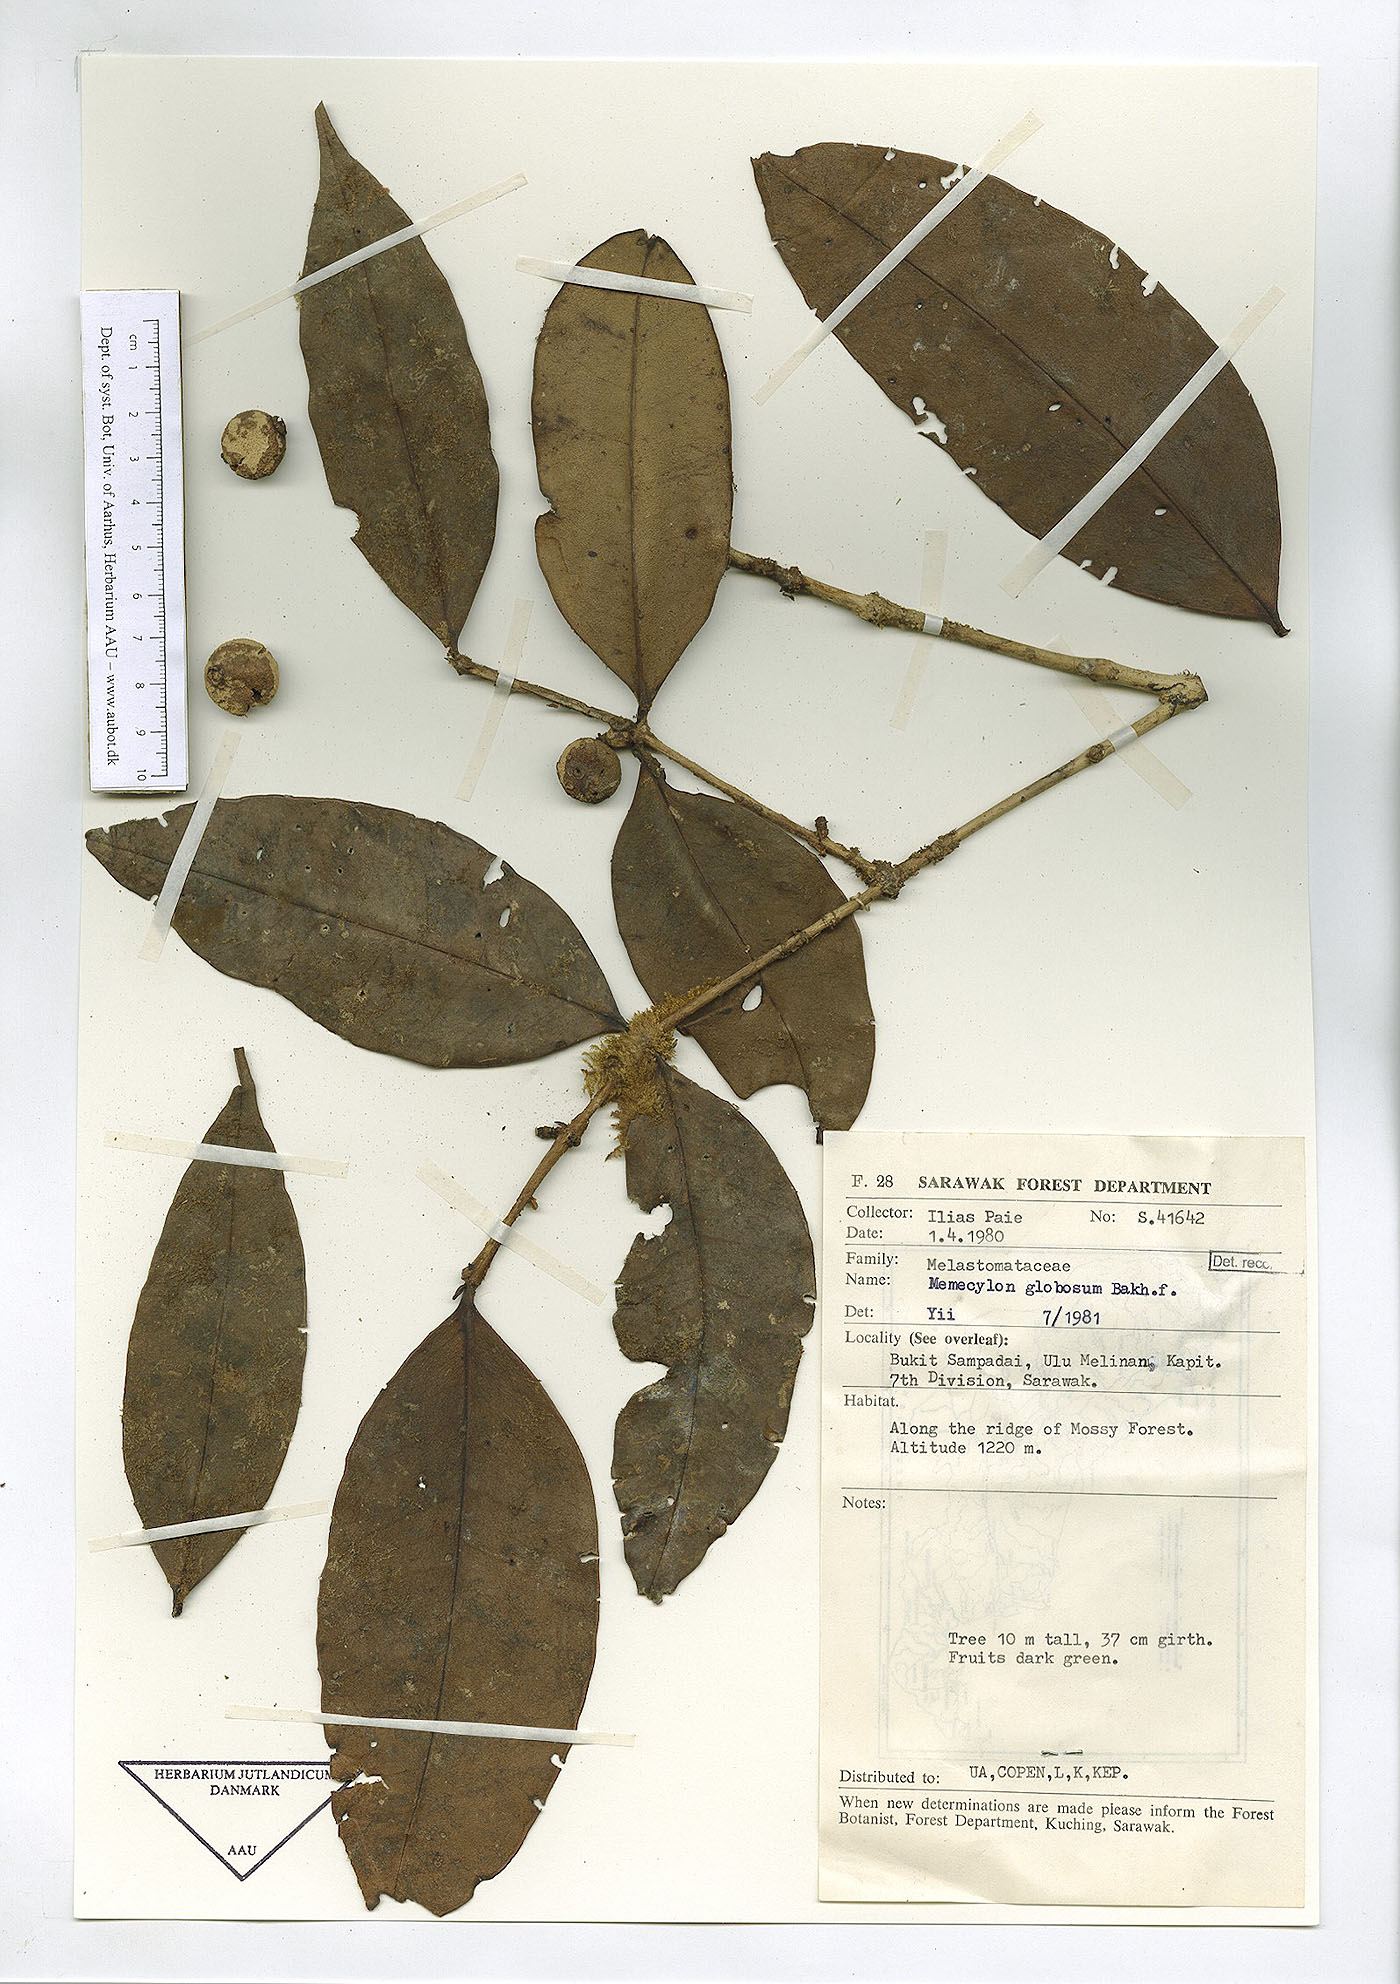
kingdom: Plantae
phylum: Tracheophyta
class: Magnoliopsida
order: Myrtales
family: Melastomataceae
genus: Memecylon
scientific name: Memecylon durum
